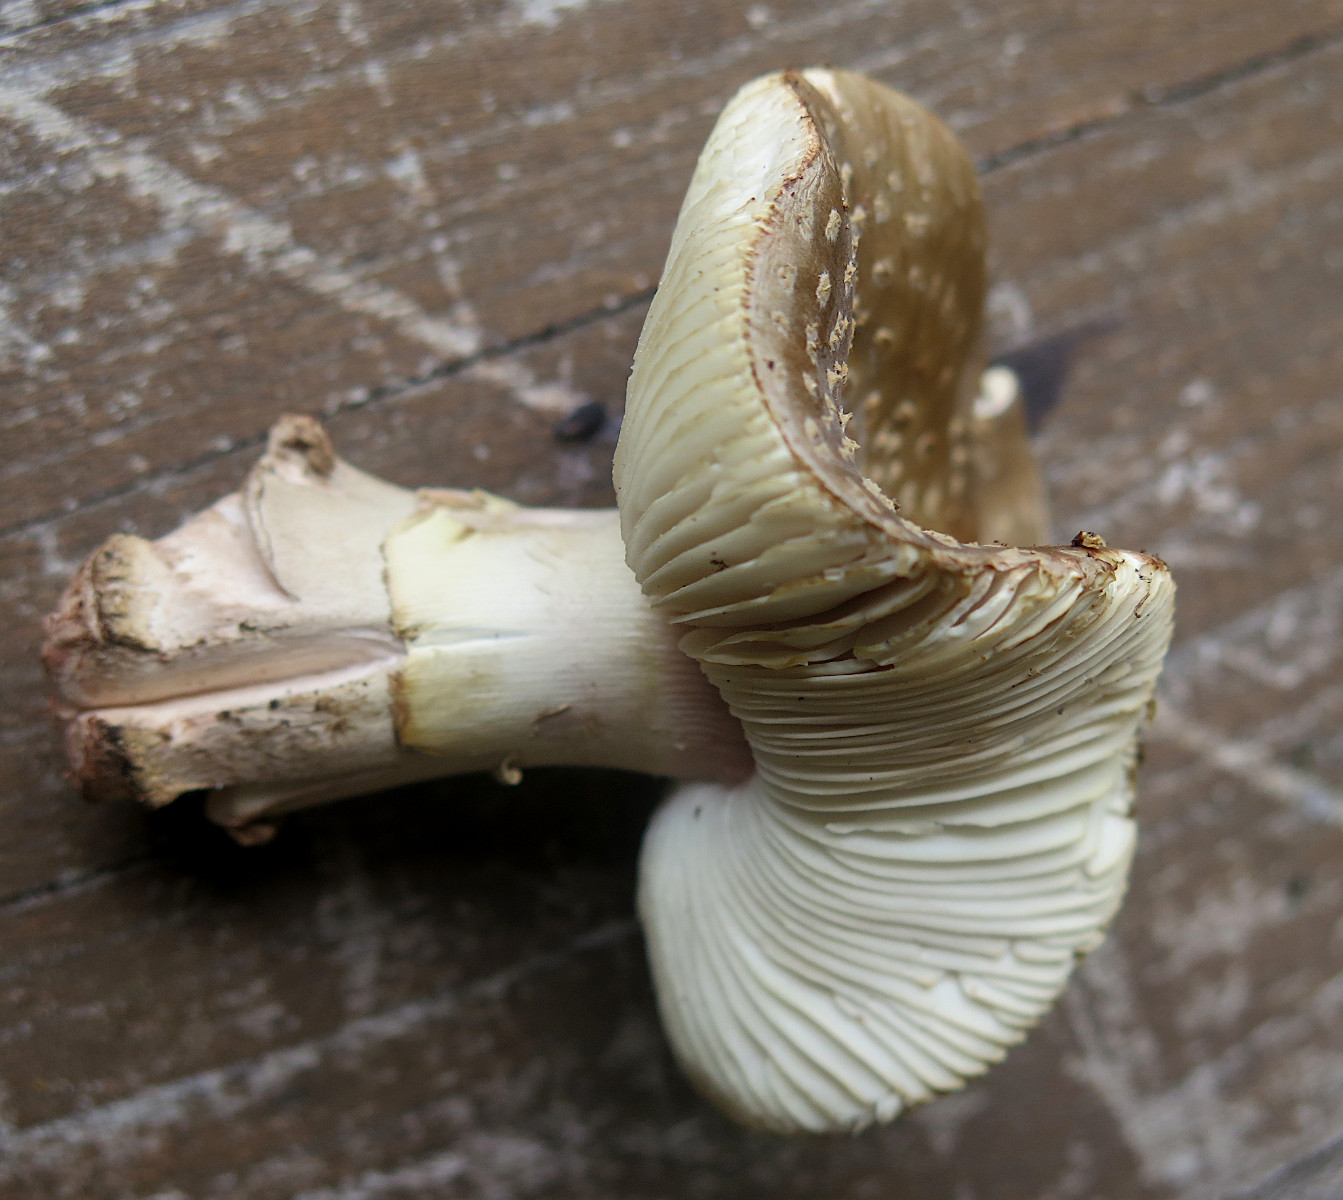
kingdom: Fungi
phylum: Basidiomycota
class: Agaricomycetes
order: Agaricales
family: Amanitaceae
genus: Amanita
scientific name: Amanita rubescens
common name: rødmende fluesvamp
